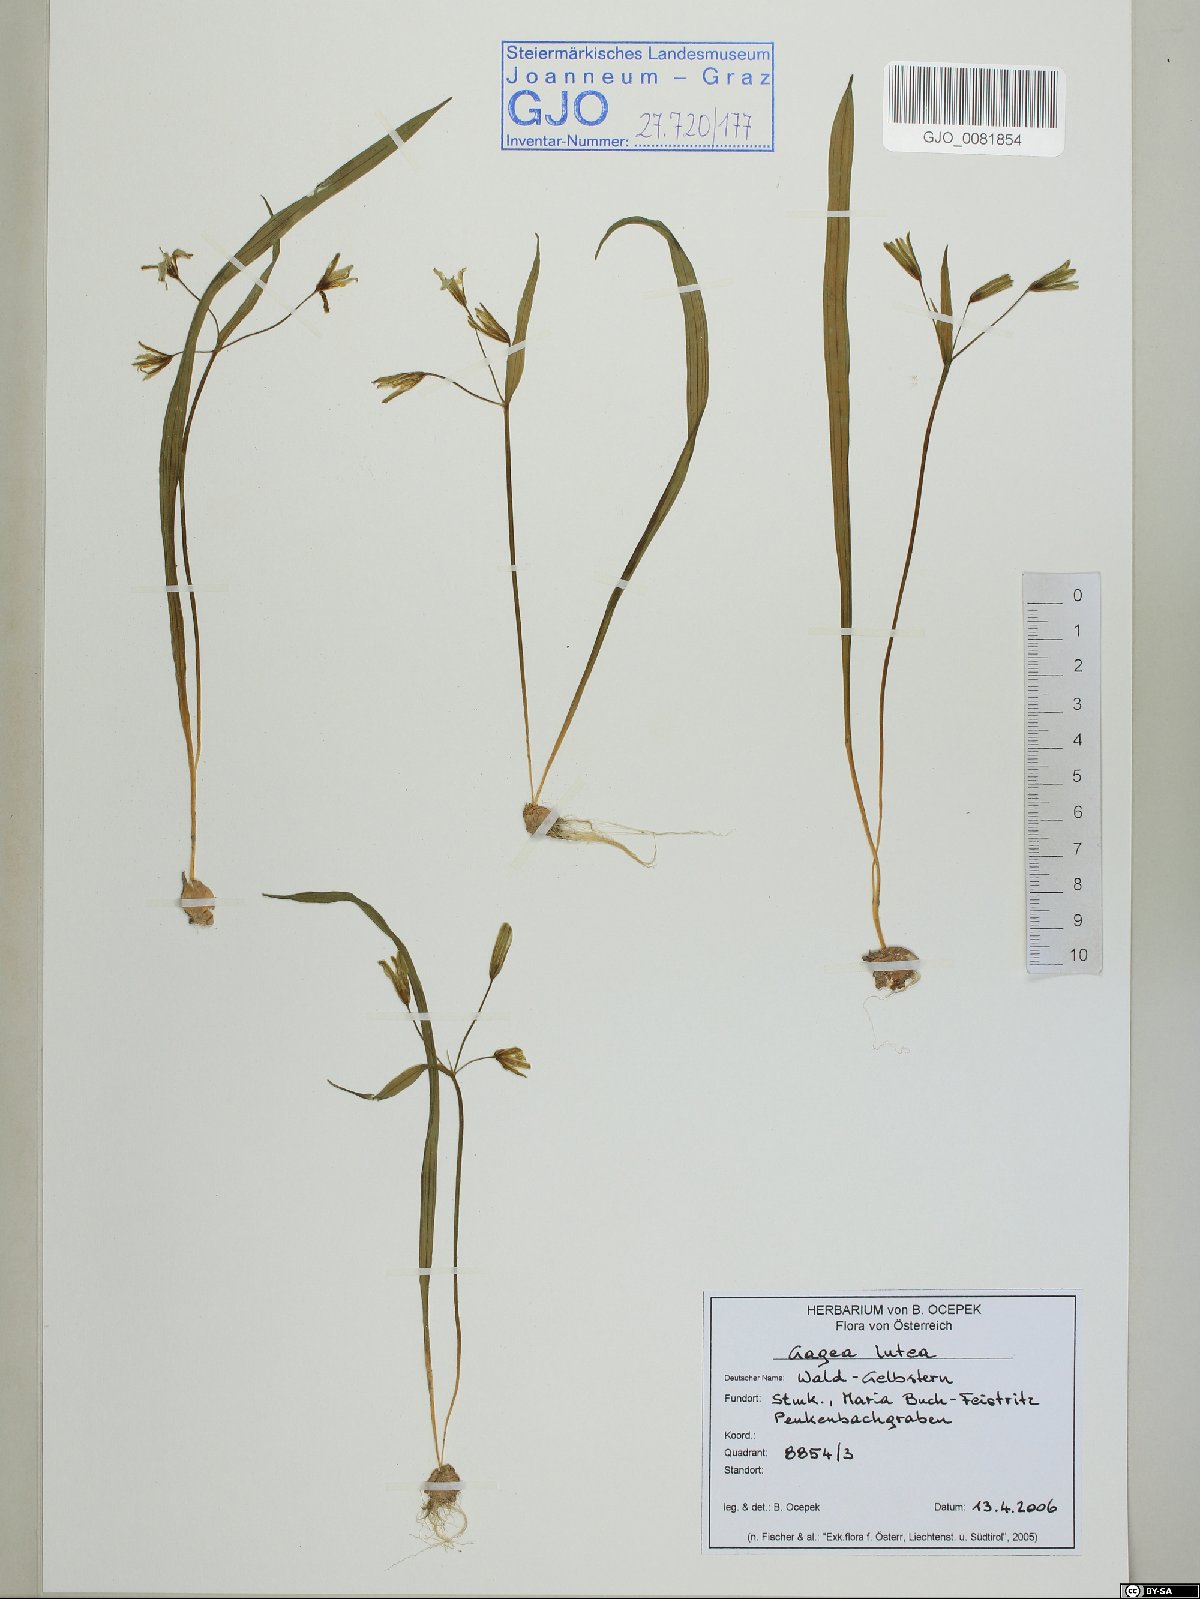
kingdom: Plantae
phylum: Tracheophyta
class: Liliopsida
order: Liliales
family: Liliaceae
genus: Gagea
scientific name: Gagea lutea
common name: Yellow star-of-bethlehem
